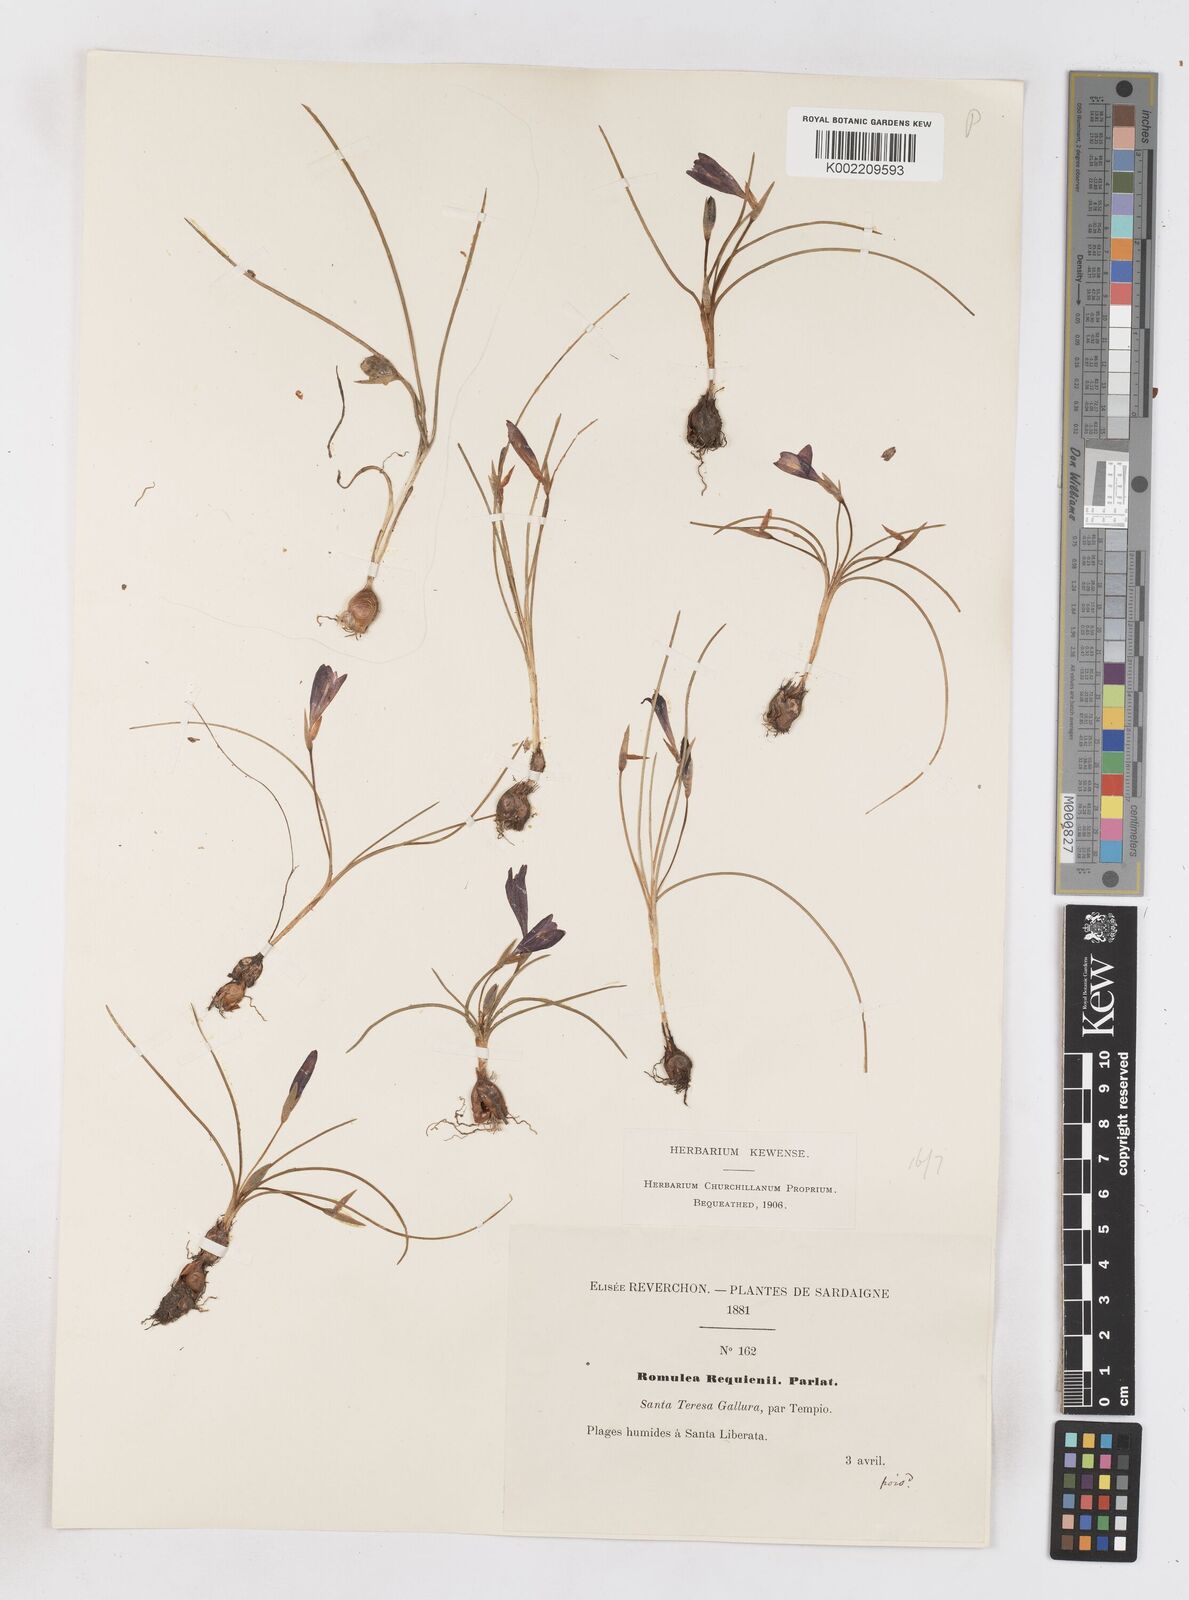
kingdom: Plantae
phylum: Tracheophyta
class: Liliopsida
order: Asparagales
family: Iridaceae
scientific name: Iridaceae
